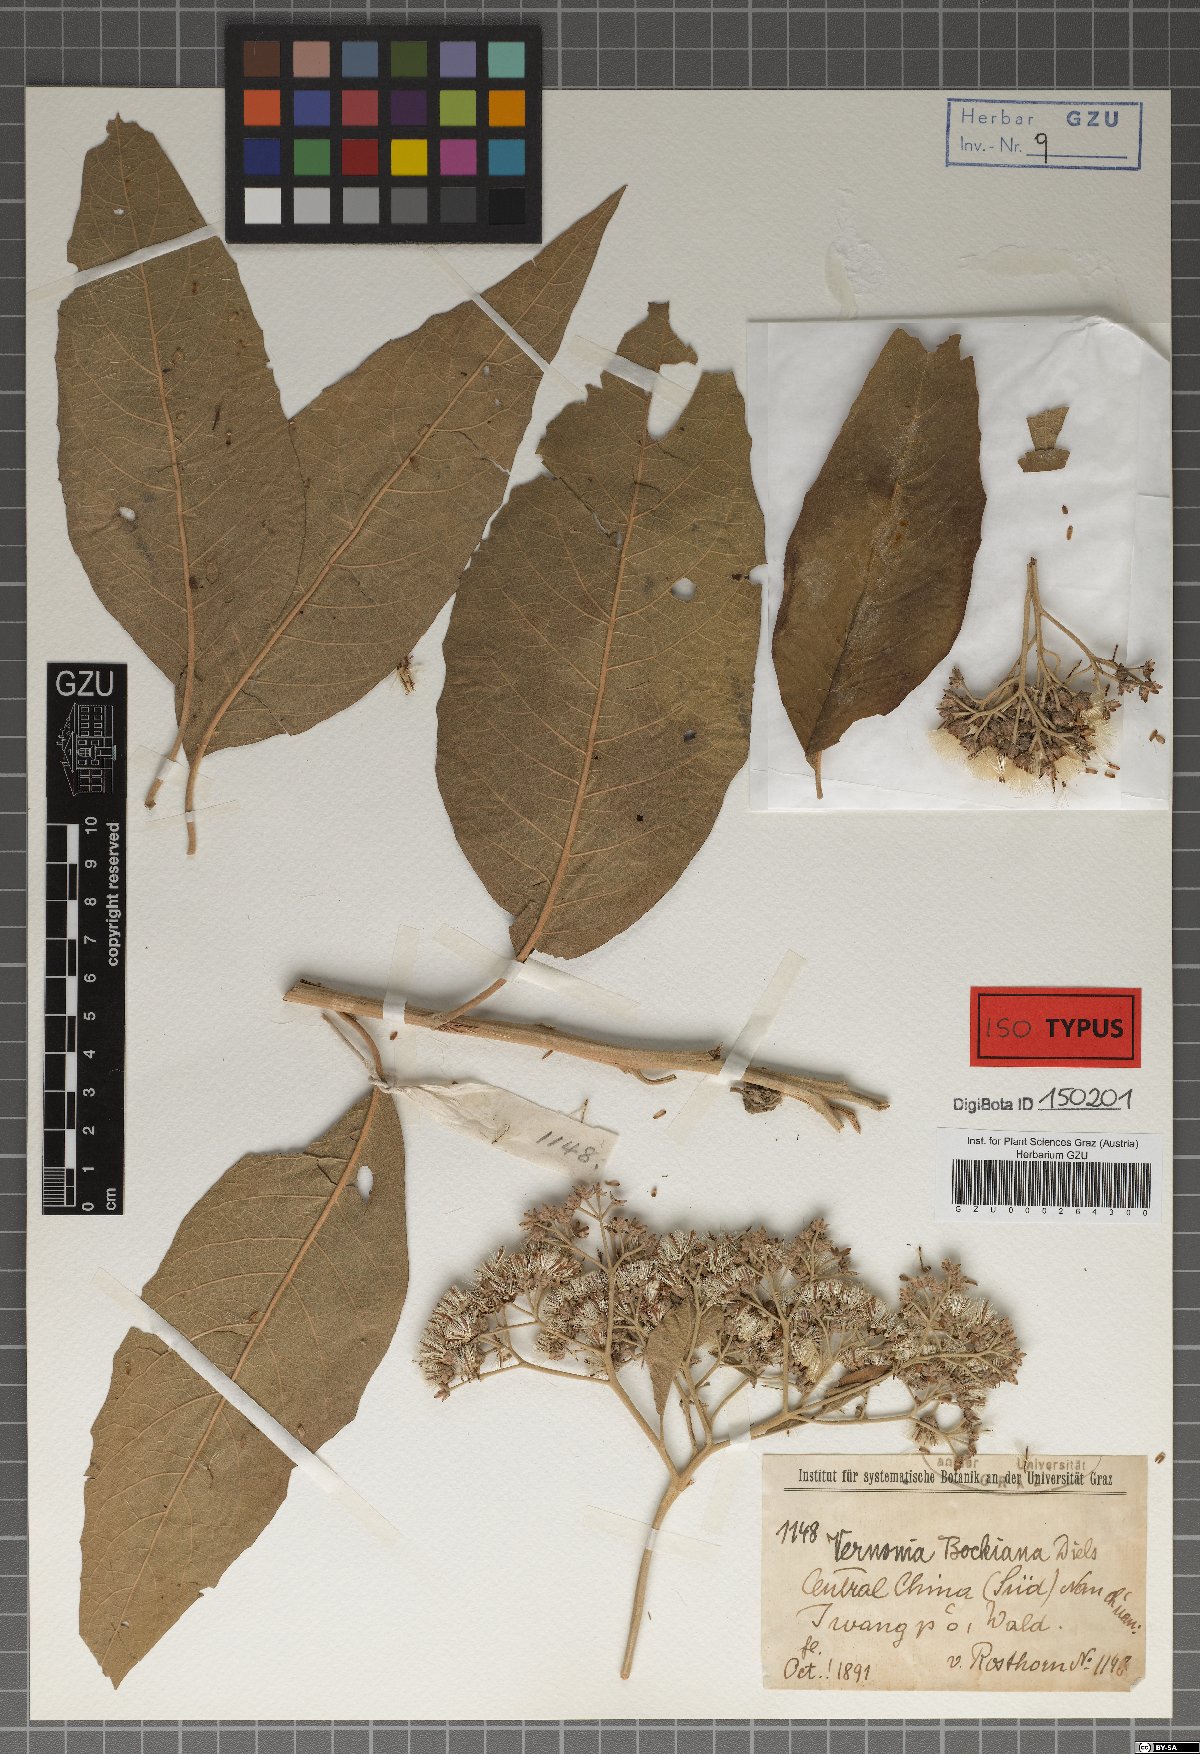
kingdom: Plantae
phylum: Tracheophyta
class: Magnoliopsida
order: Asterales
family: Asteraceae
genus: Strobocalyx
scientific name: Strobocalyx bockiana
